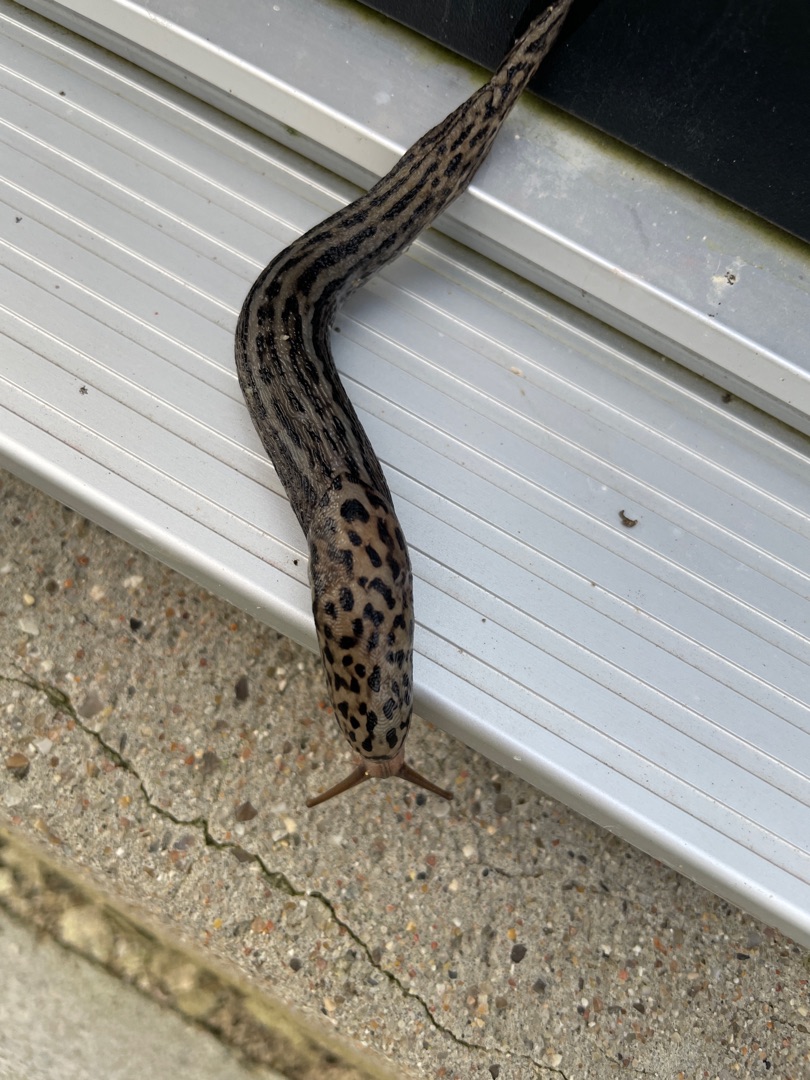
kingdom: Animalia
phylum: Mollusca
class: Gastropoda
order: Stylommatophora
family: Limacidae
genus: Limax
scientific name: Limax maximus
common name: Pantersnegl
